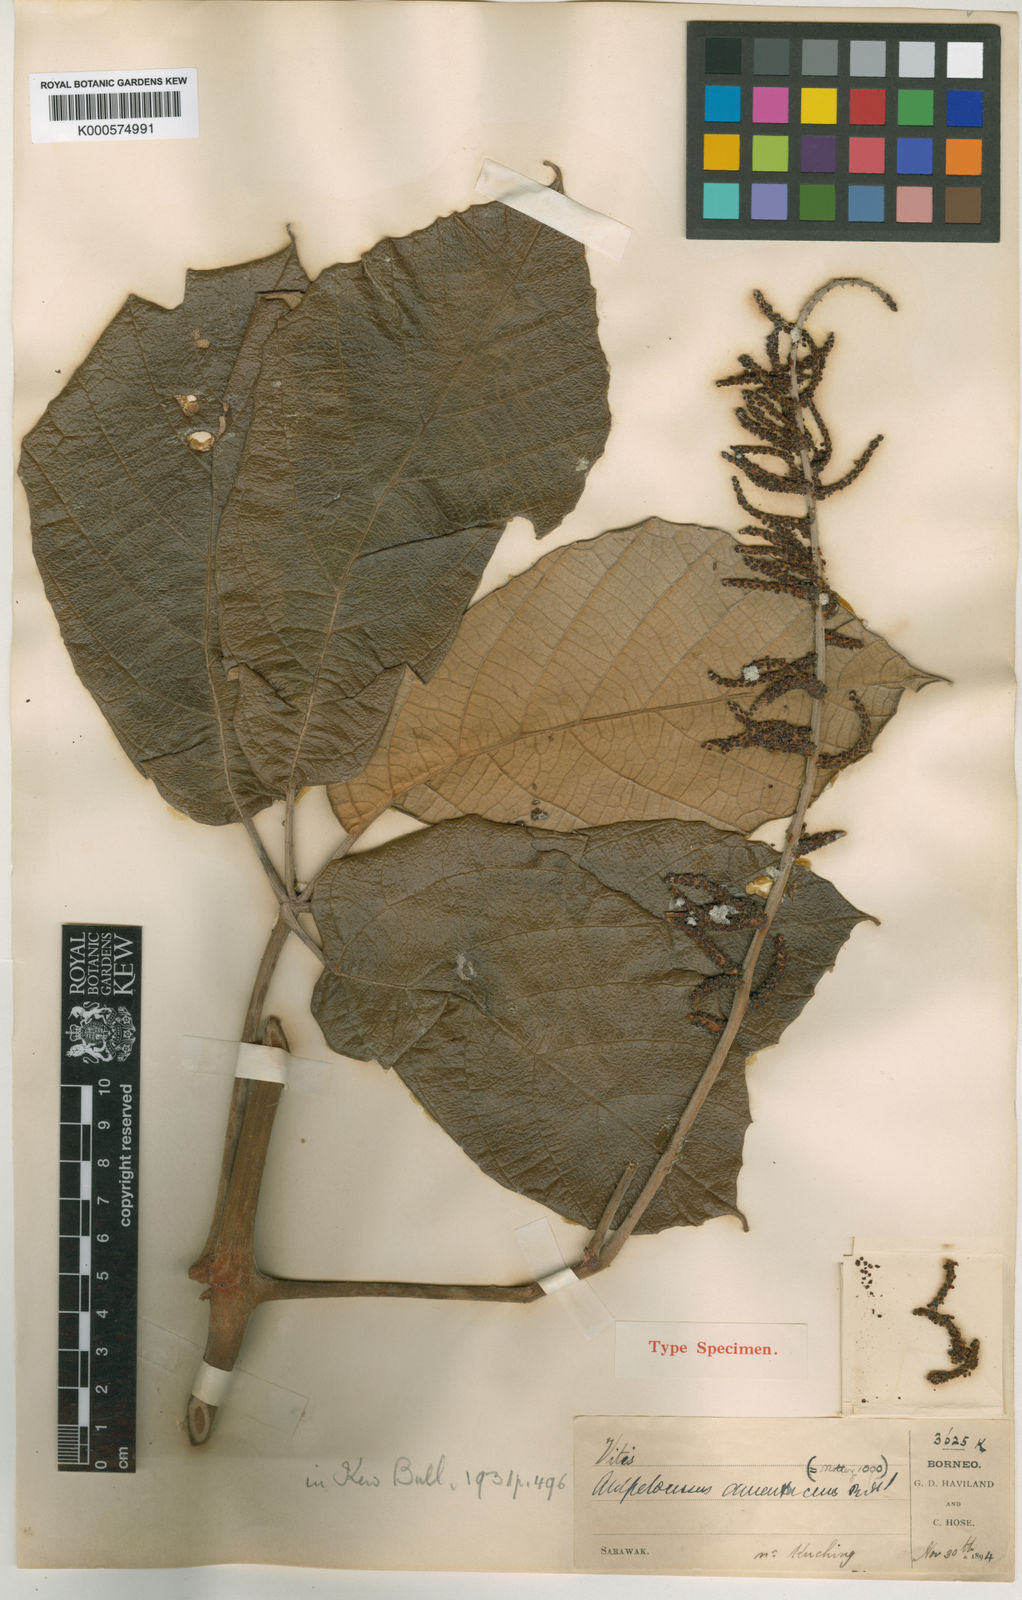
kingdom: Plantae
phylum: Tracheophyta
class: Magnoliopsida
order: Vitales
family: Vitaceae
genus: Ampelocissus
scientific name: Ampelocissus amentacea
